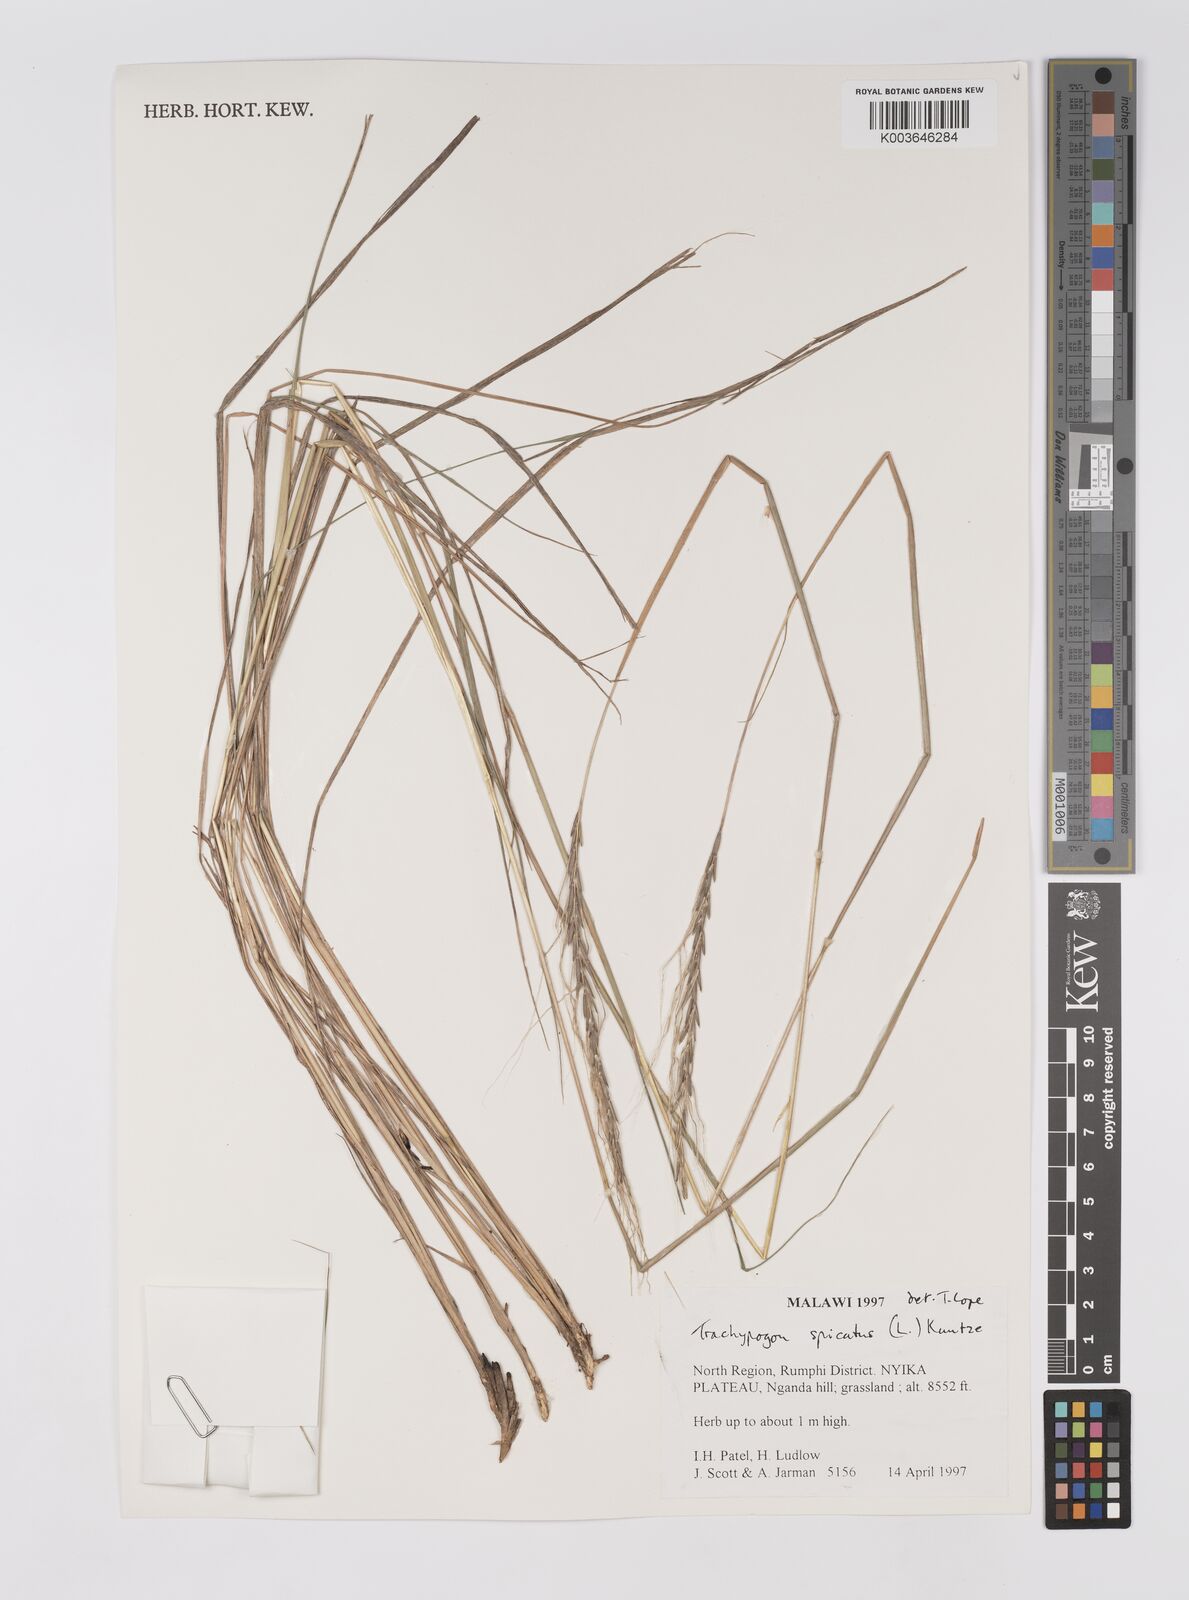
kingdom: Plantae
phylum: Tracheophyta
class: Liliopsida
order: Poales
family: Poaceae
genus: Trachypogon
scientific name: Trachypogon spicatus
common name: Crinkle-awn
